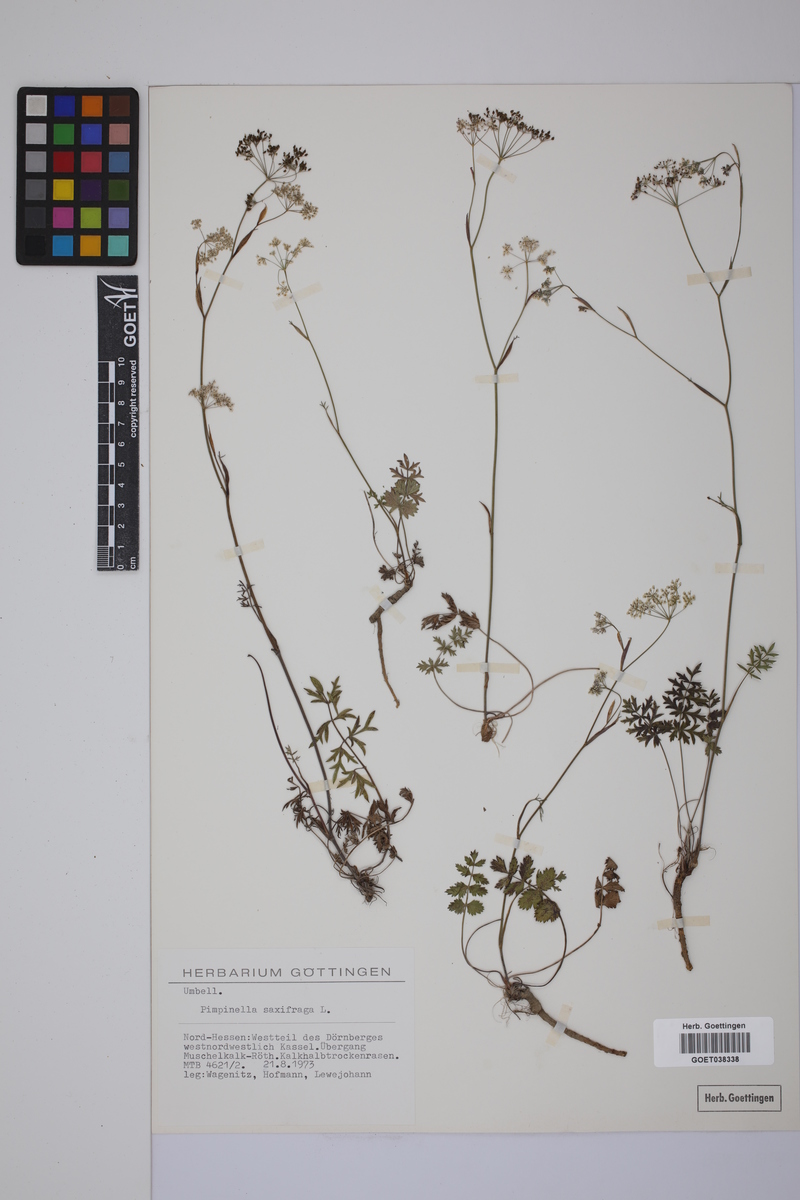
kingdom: Plantae
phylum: Tracheophyta
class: Magnoliopsida
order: Apiales
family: Apiaceae
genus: Pimpinella
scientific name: Pimpinella saxifraga
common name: Burnet-saxifrage
